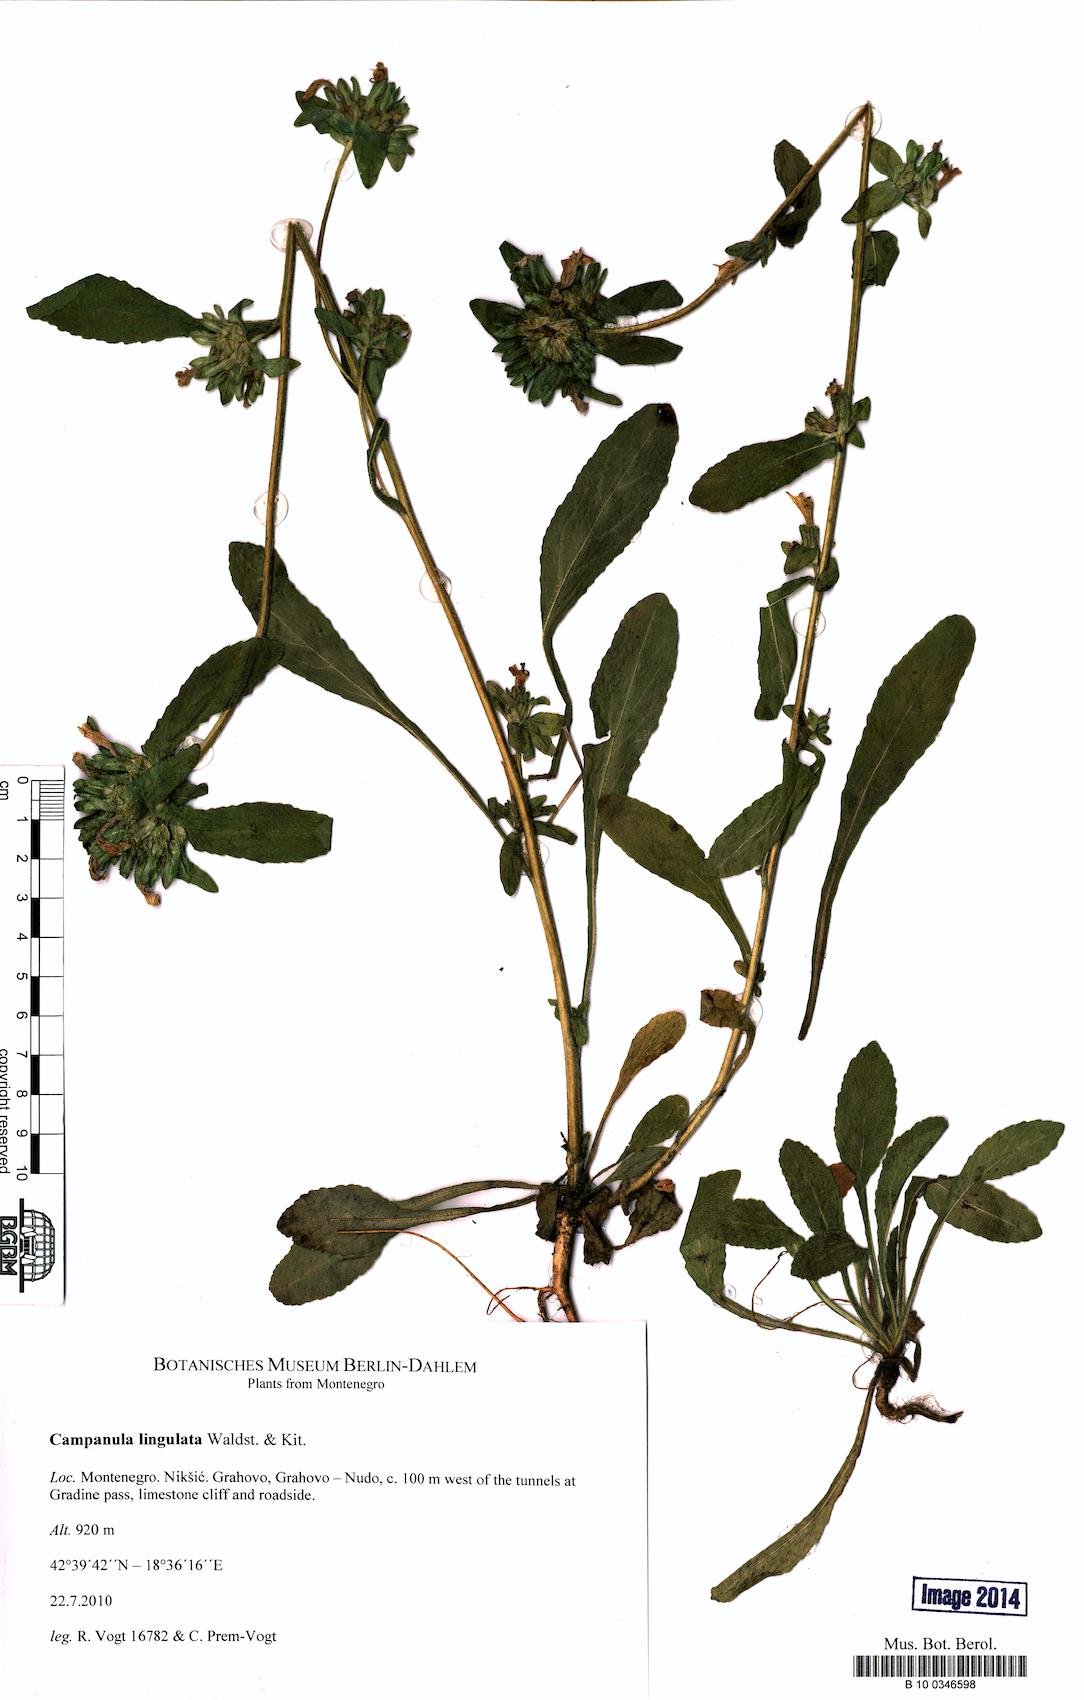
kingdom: Plantae
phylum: Tracheophyta
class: Magnoliopsida
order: Asterales
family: Campanulaceae
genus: Campanula
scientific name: Campanula lingulata
